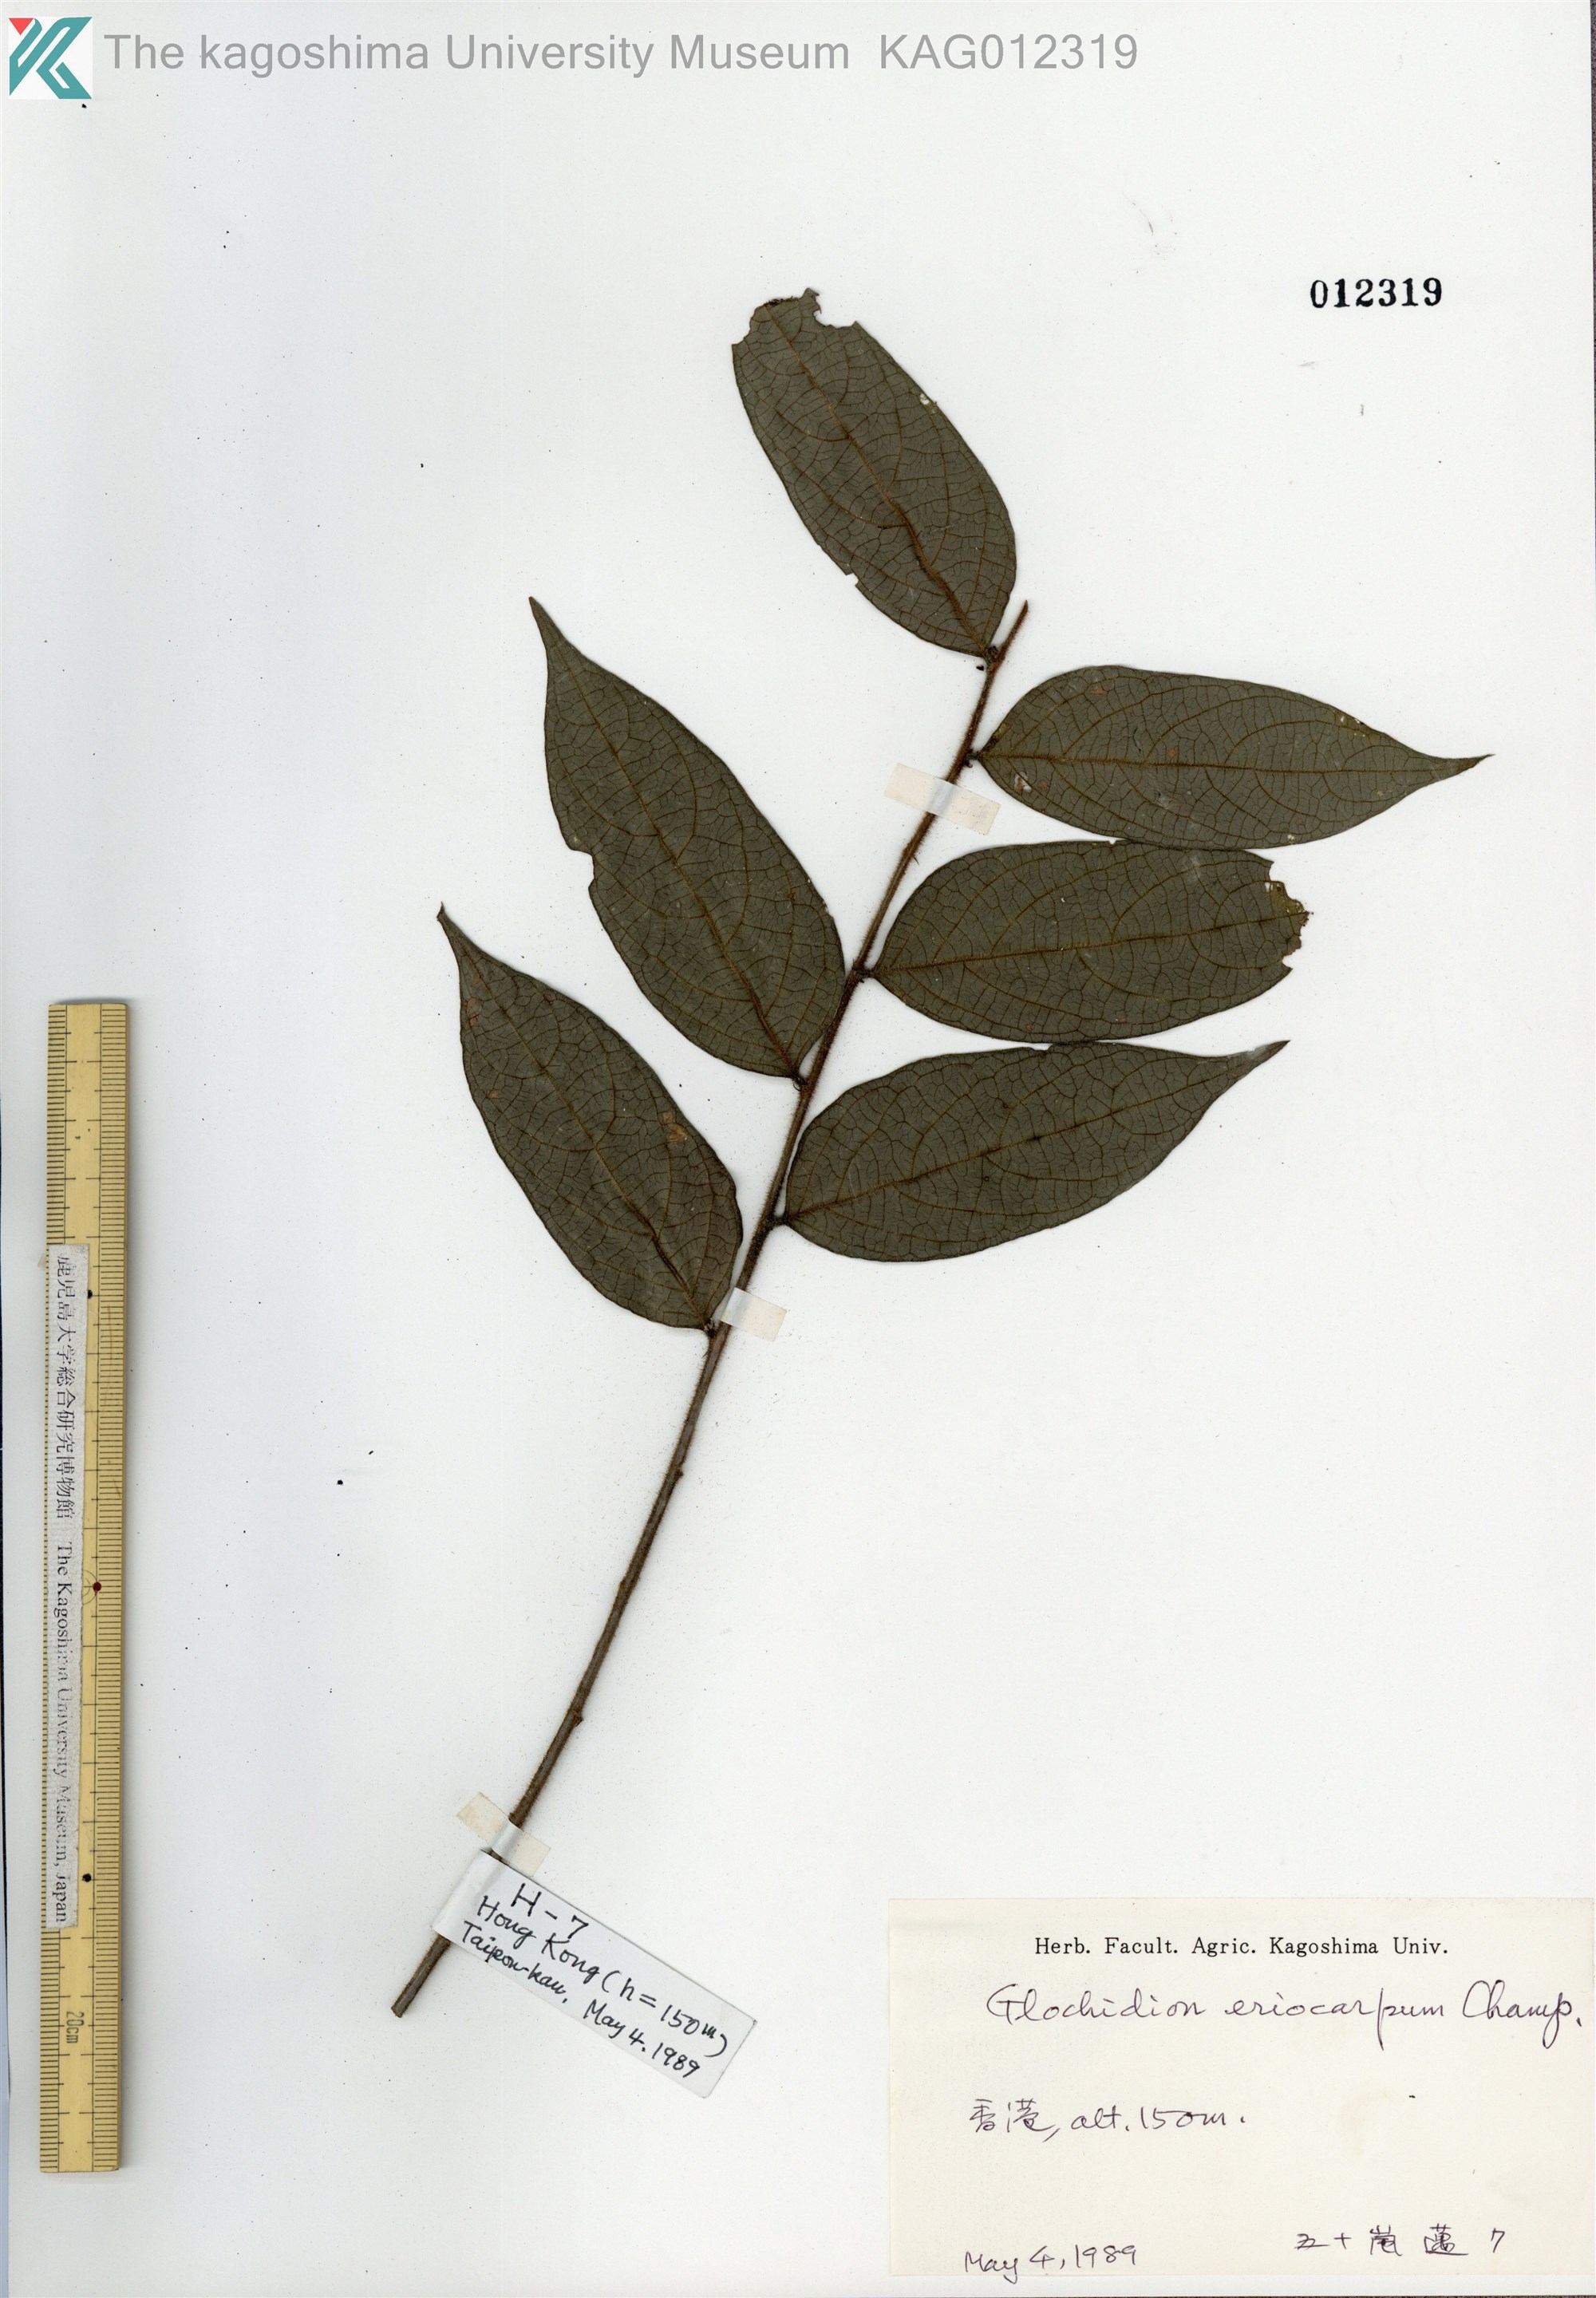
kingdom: Plantae
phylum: Tracheophyta
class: Magnoliopsida
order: Malpighiales
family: Phyllanthaceae
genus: Glochidion
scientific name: Glochidion eriocarpum
